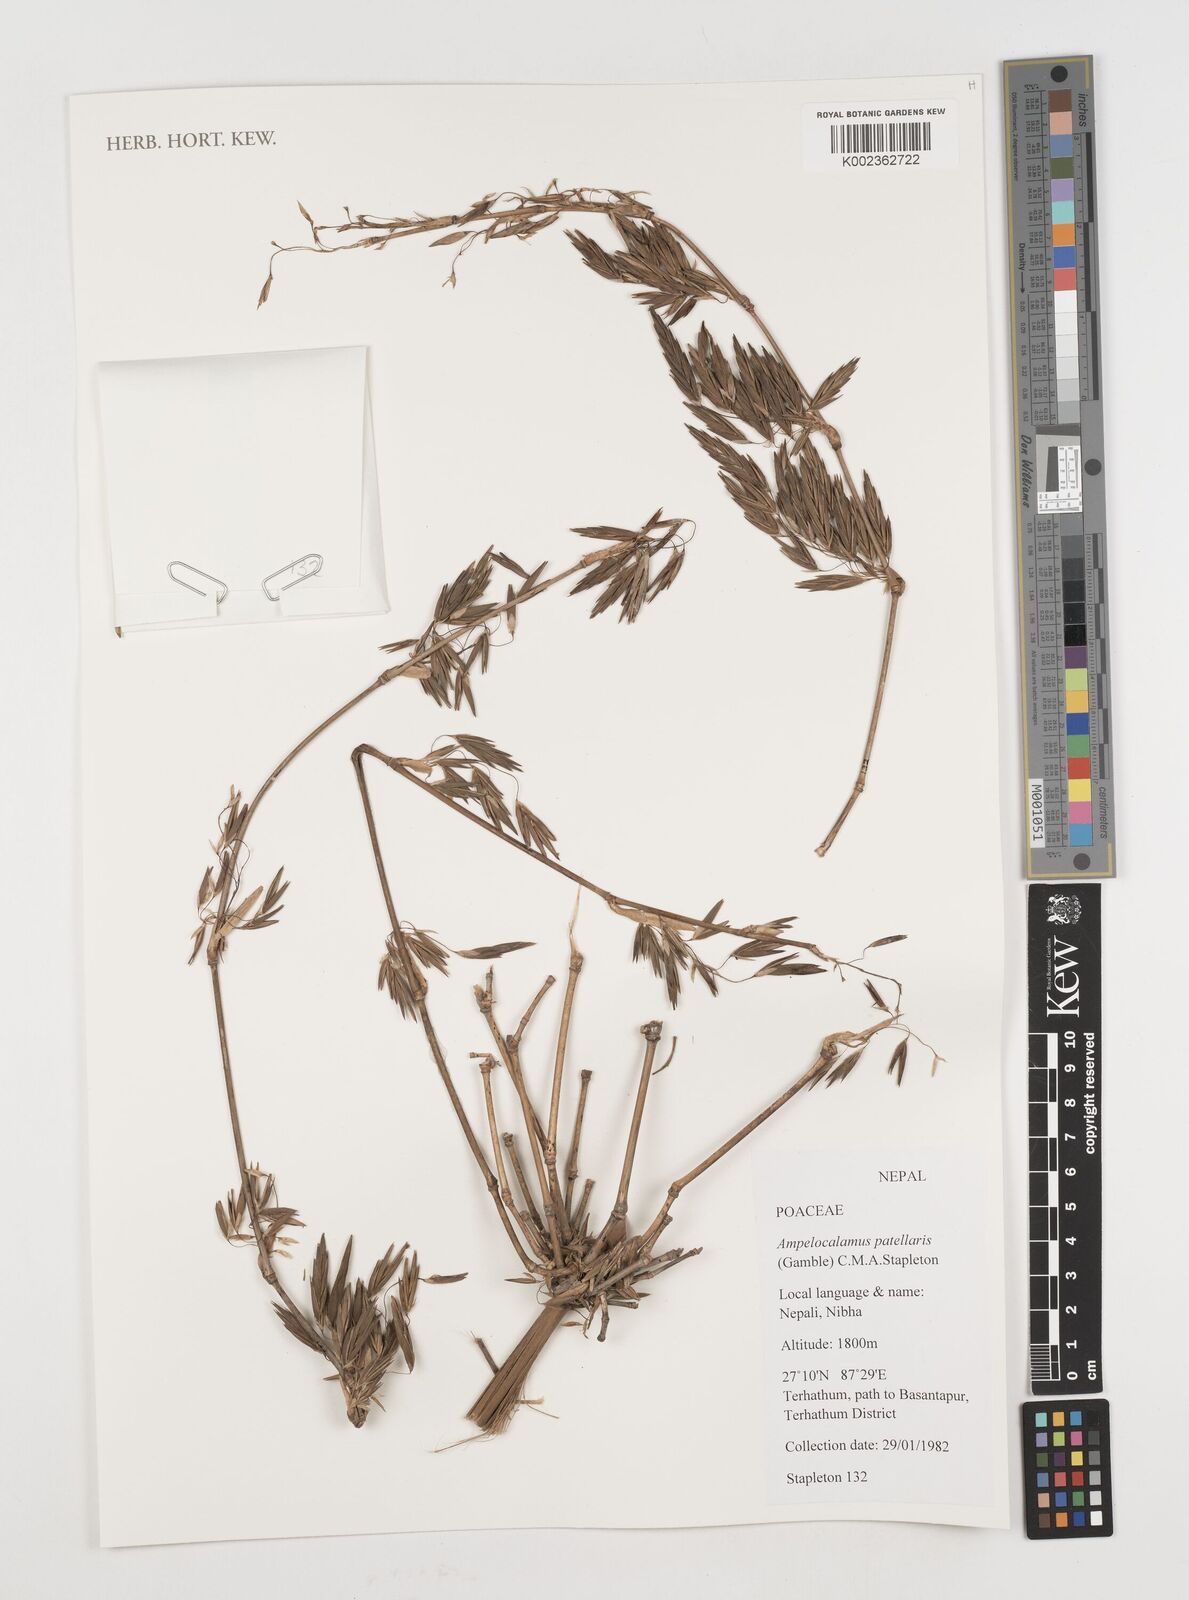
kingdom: Plantae
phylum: Tracheophyta
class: Liliopsida
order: Poales
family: Poaceae
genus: Ampelocalamus
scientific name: Ampelocalamus patellaris
